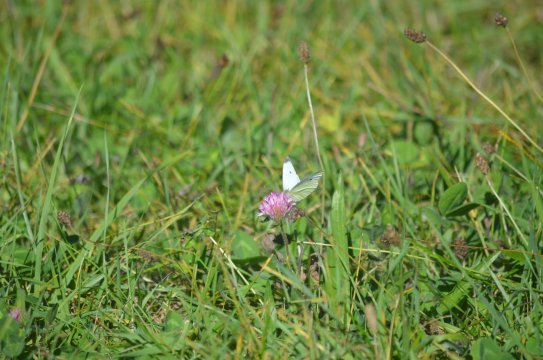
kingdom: Animalia
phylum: Arthropoda
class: Insecta
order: Lepidoptera
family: Pieridae
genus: Pieris
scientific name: Pieris rapae
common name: Cabbage White
